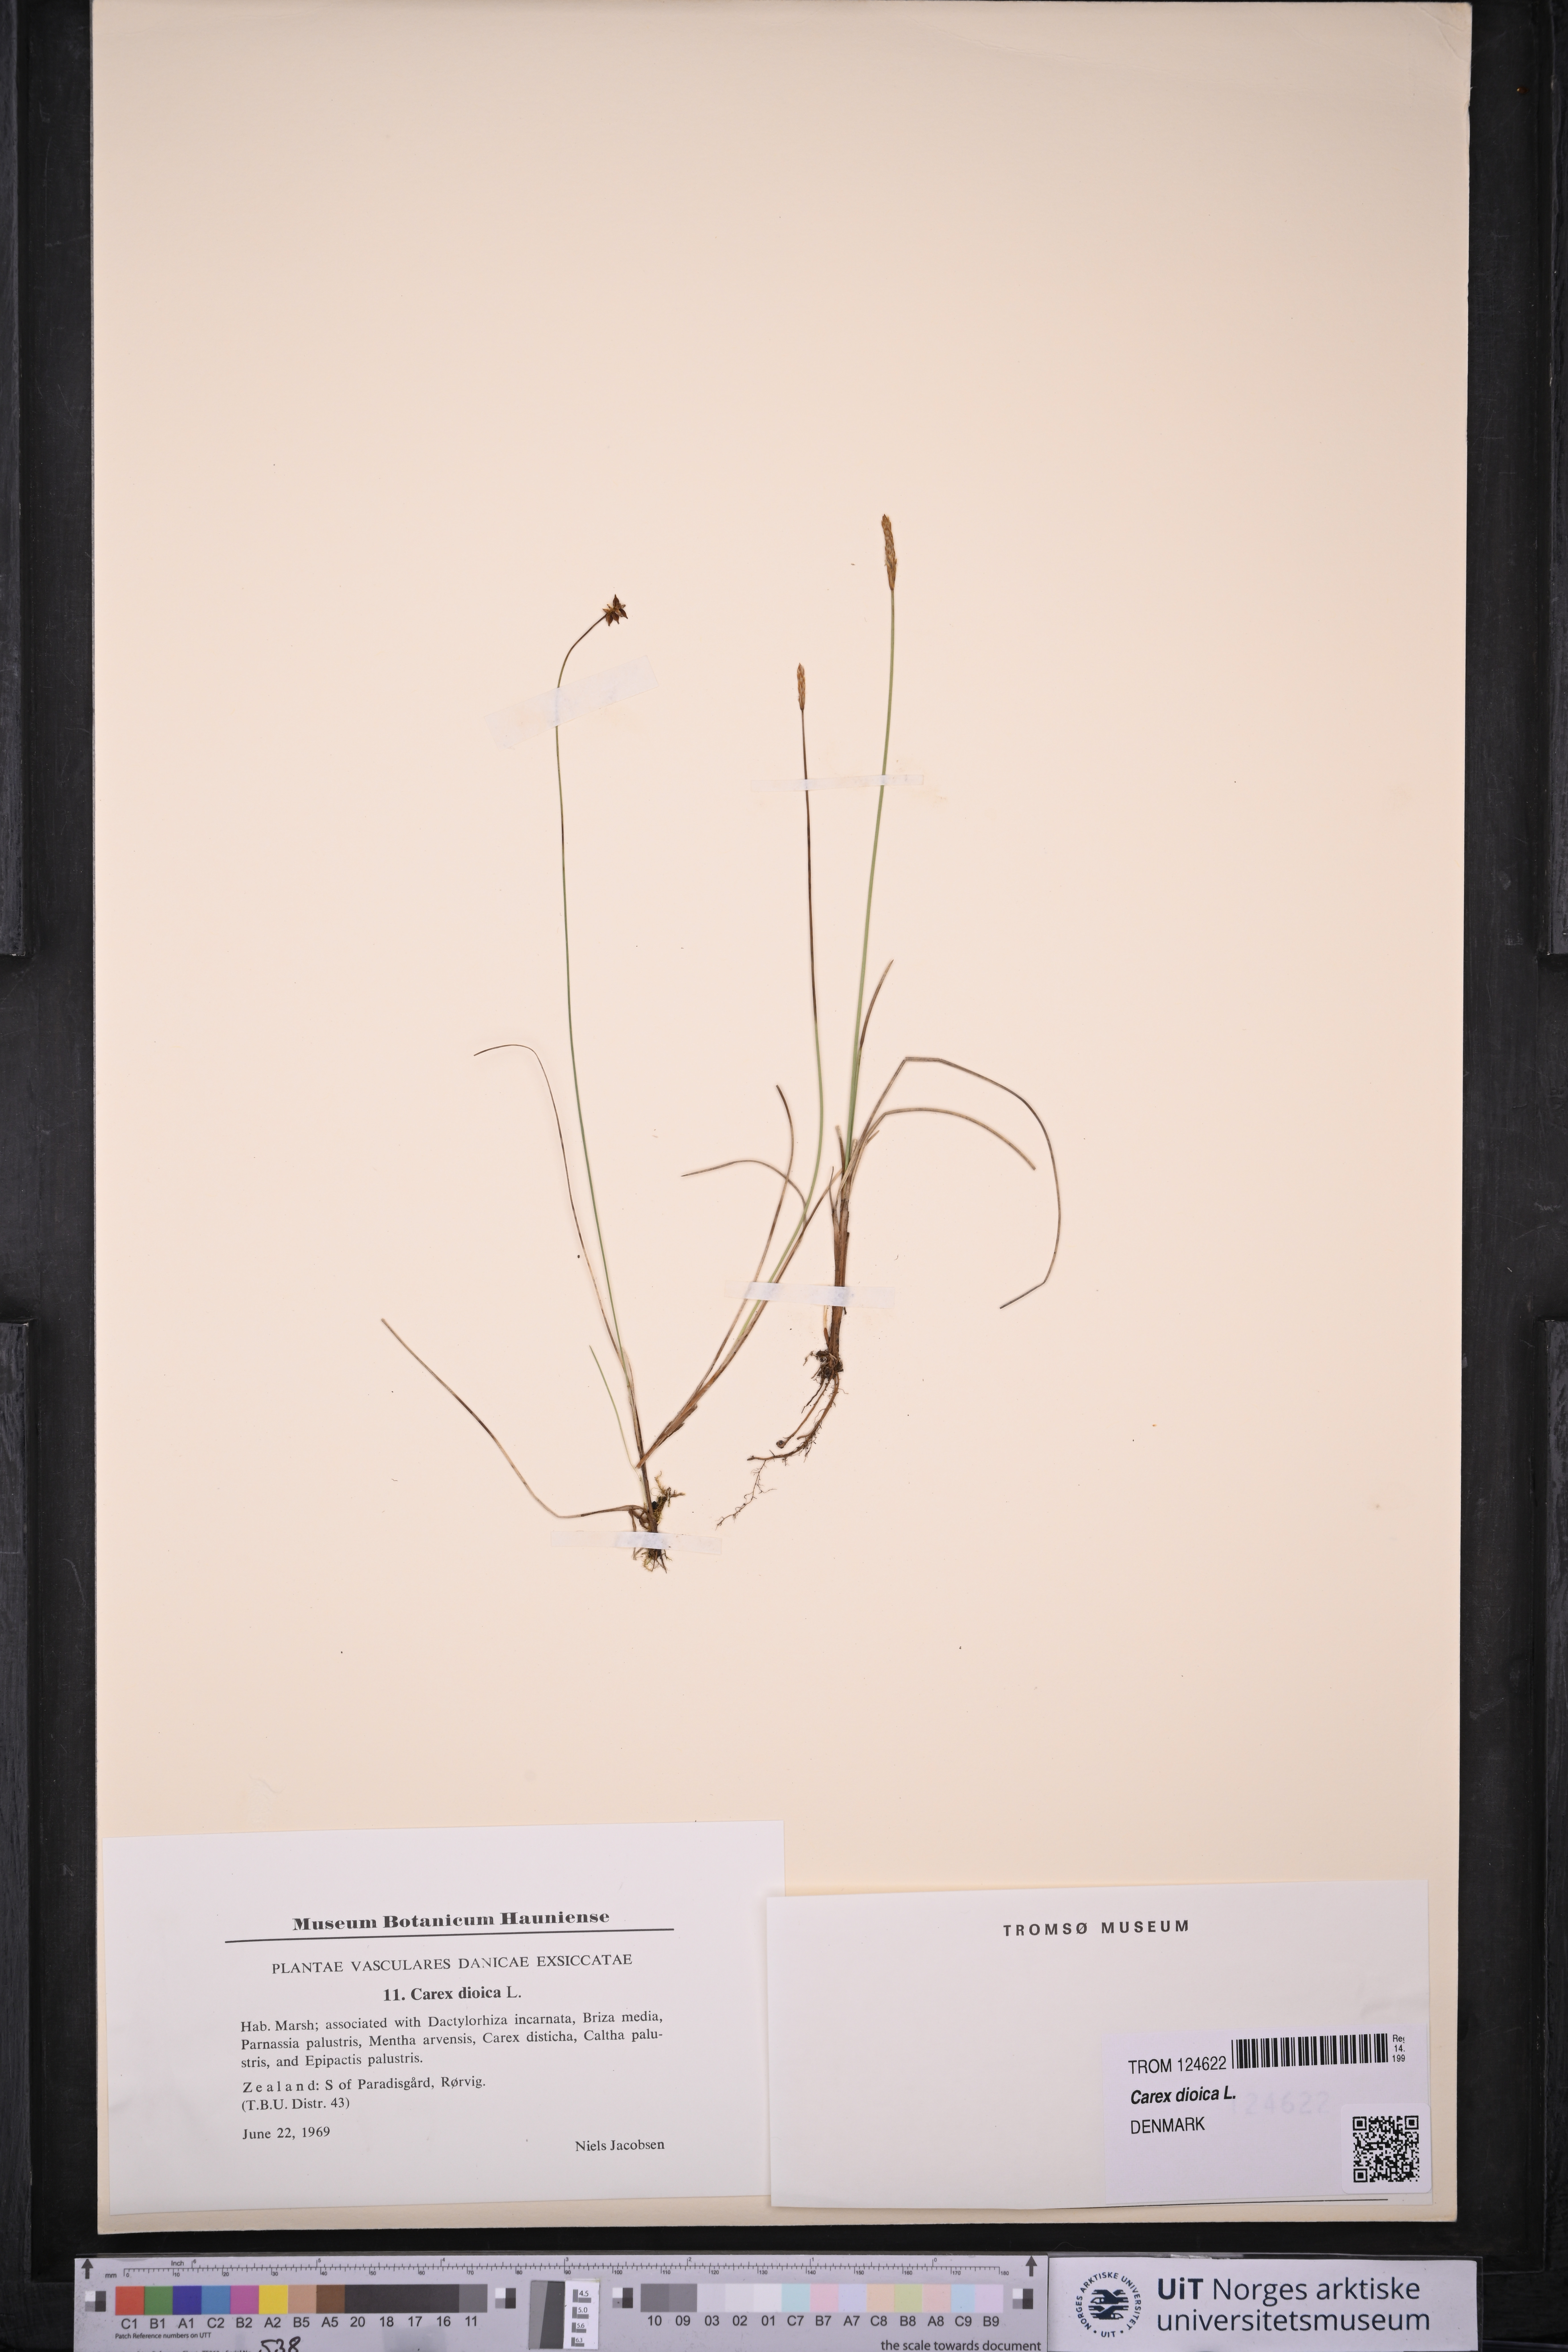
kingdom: Plantae
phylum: Tracheophyta
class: Liliopsida
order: Poales
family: Cyperaceae
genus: Carex
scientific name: Carex dioica
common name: Dioecious sedge
